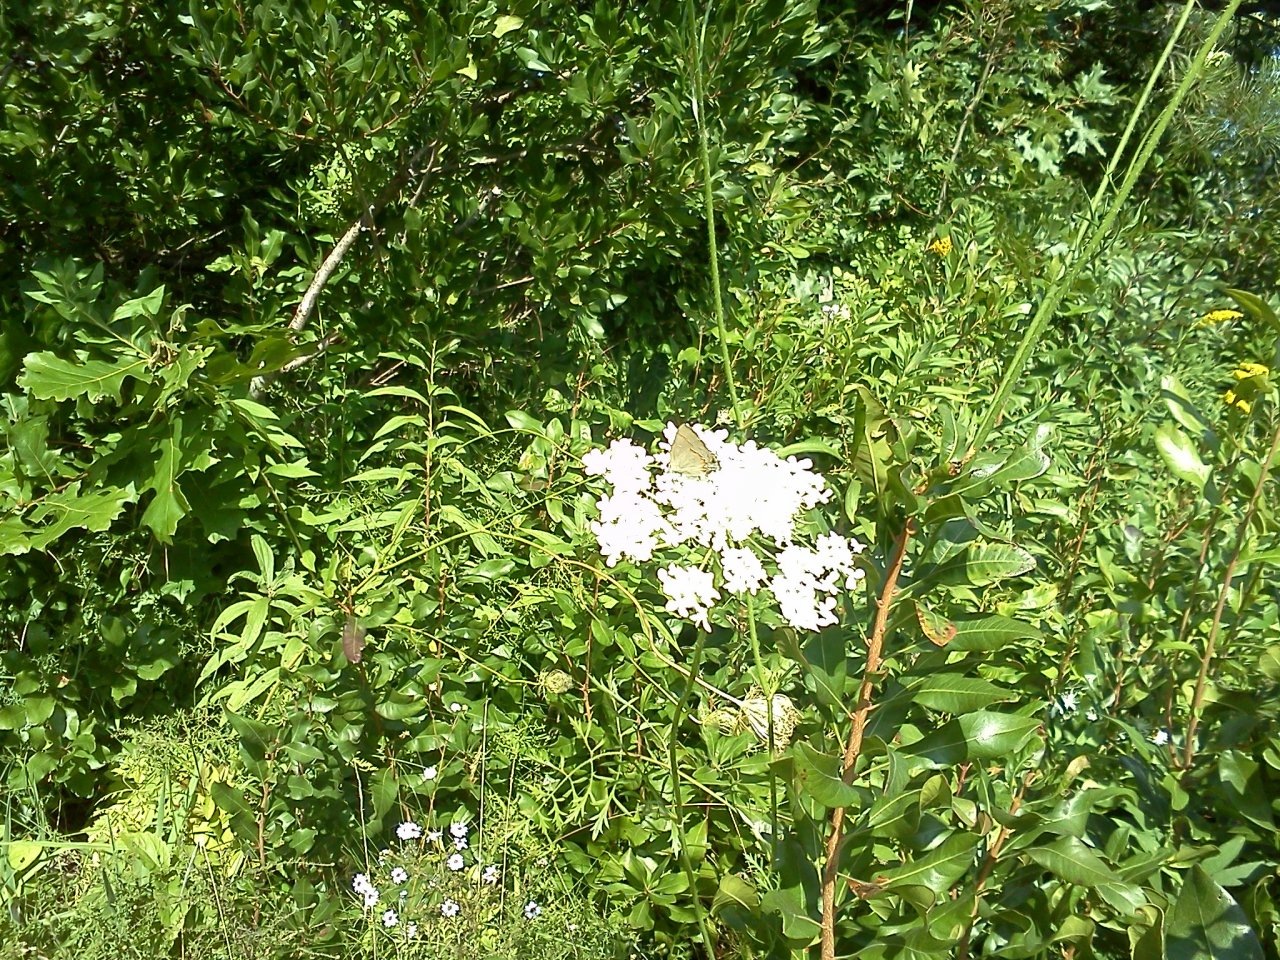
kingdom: Animalia
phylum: Arthropoda
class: Insecta
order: Lepidoptera
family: Lycaenidae
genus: Calycopis
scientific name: Calycopis cecrops
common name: Red-banded Hairstreak
